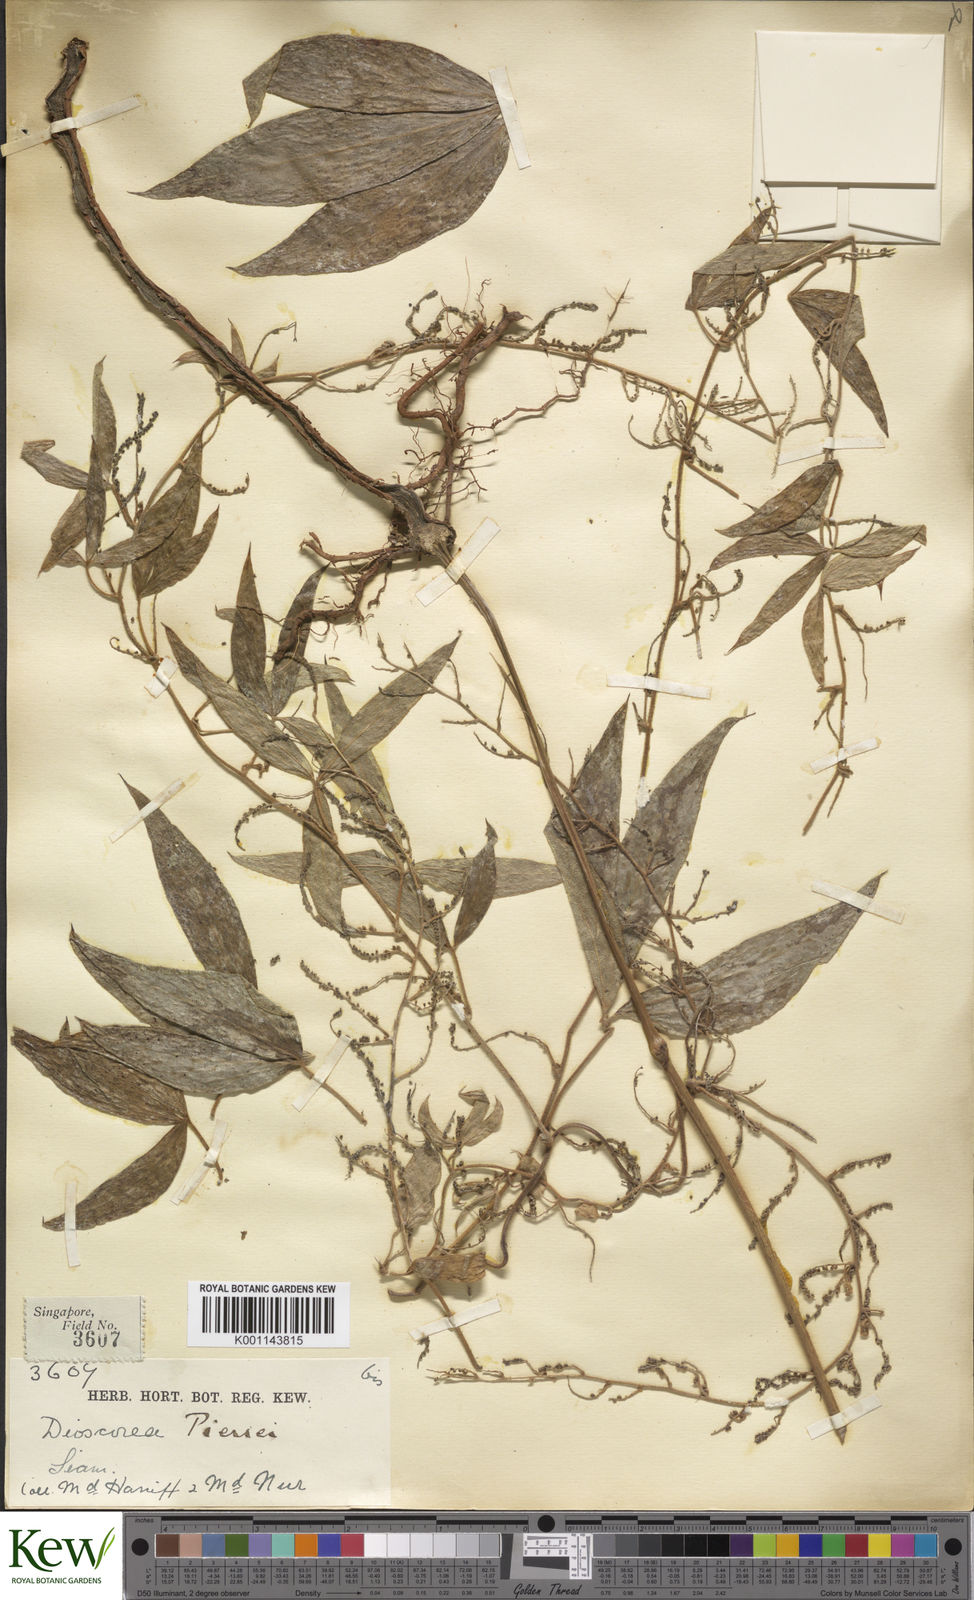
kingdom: Plantae
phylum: Tracheophyta
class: Liliopsida
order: Dioscoreales
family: Dioscoreaceae
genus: Dioscorea
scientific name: Dioscorea pierrei
